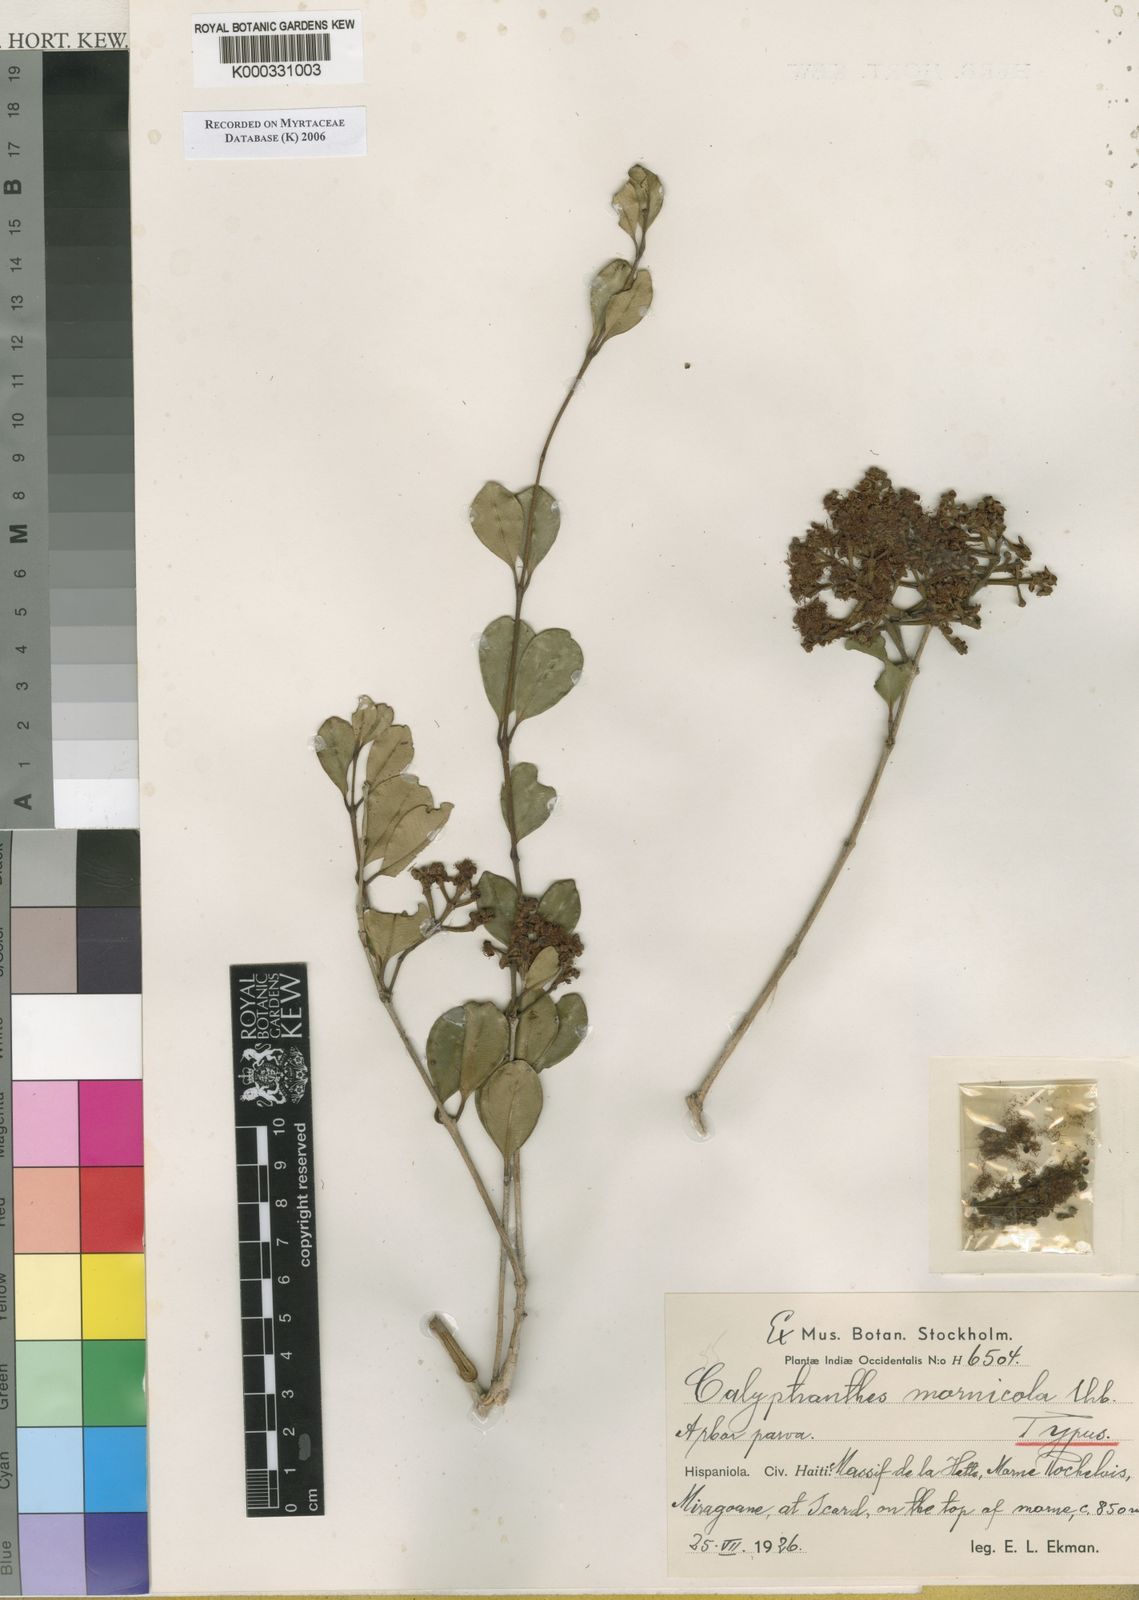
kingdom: Plantae
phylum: Tracheophyta
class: Magnoliopsida
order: Myrtales
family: Myrtaceae
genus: Myrcia
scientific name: Myrcia mornicola
